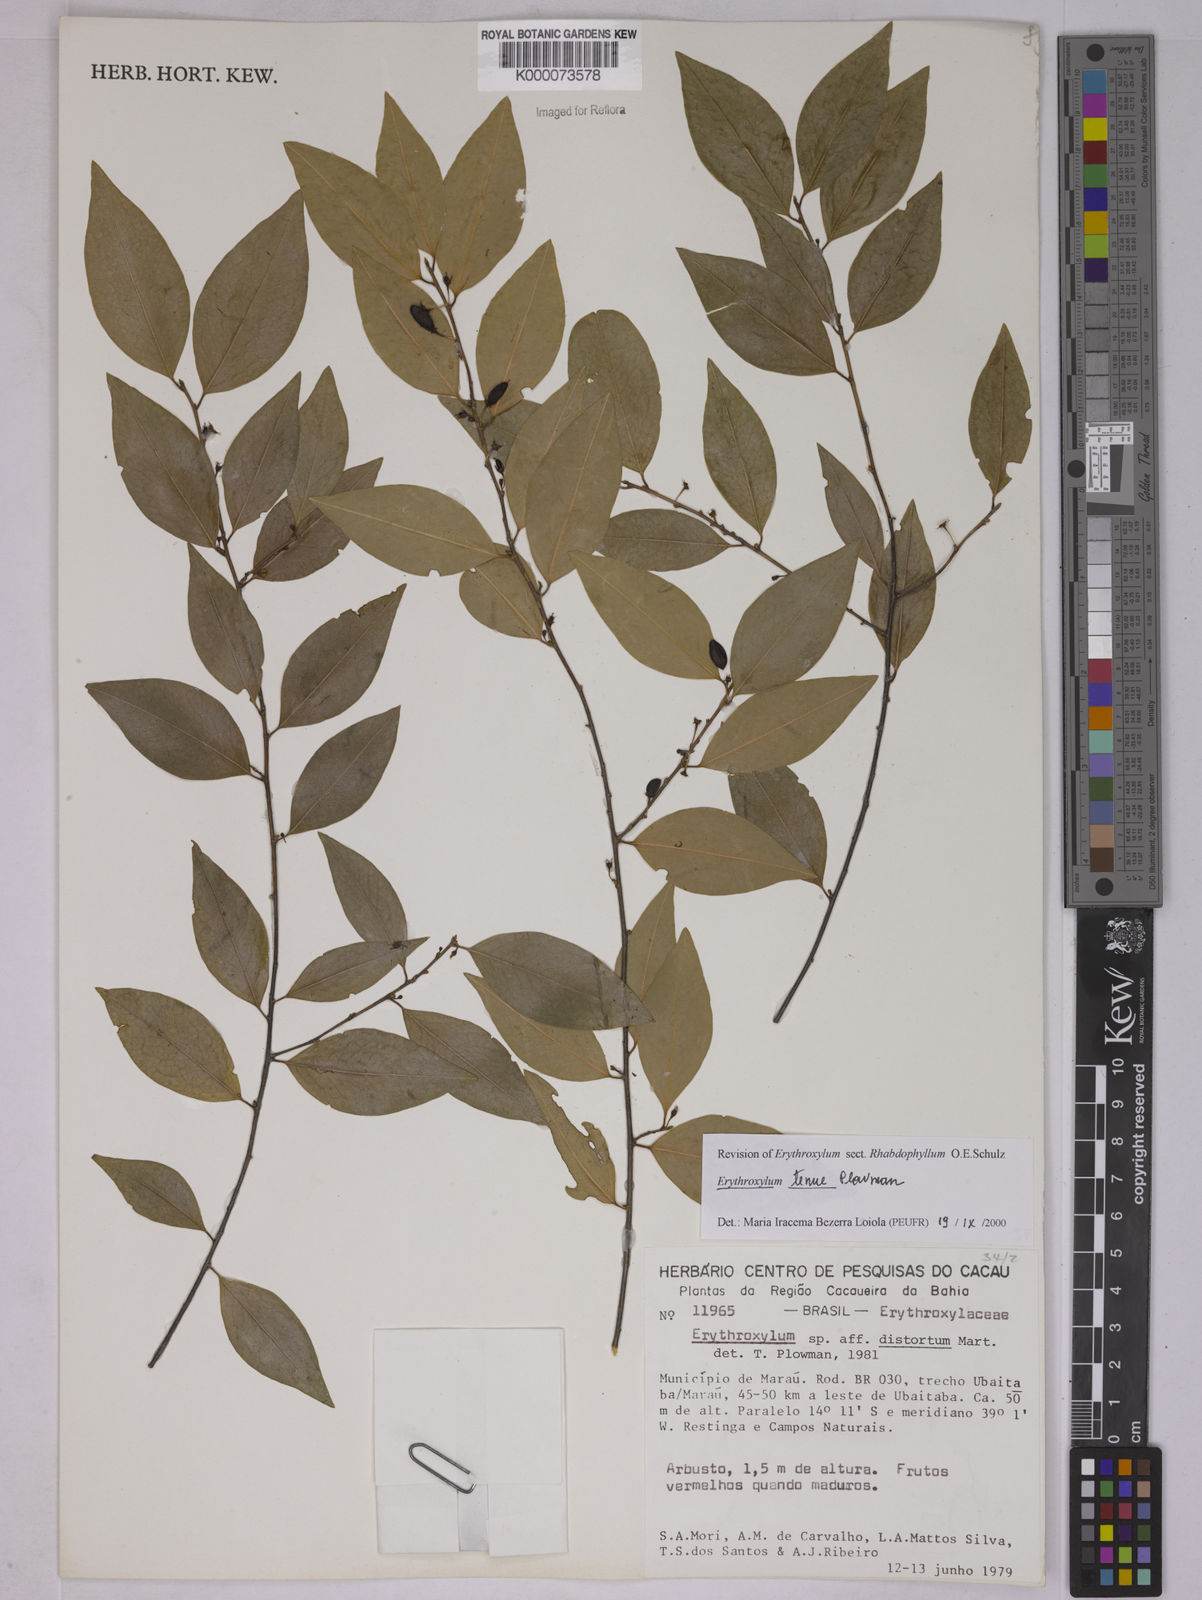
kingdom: Plantae
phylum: Tracheophyta
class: Magnoliopsida
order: Malpighiales
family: Erythroxylaceae
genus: Erythroxylum
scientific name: Erythroxylum tenue
